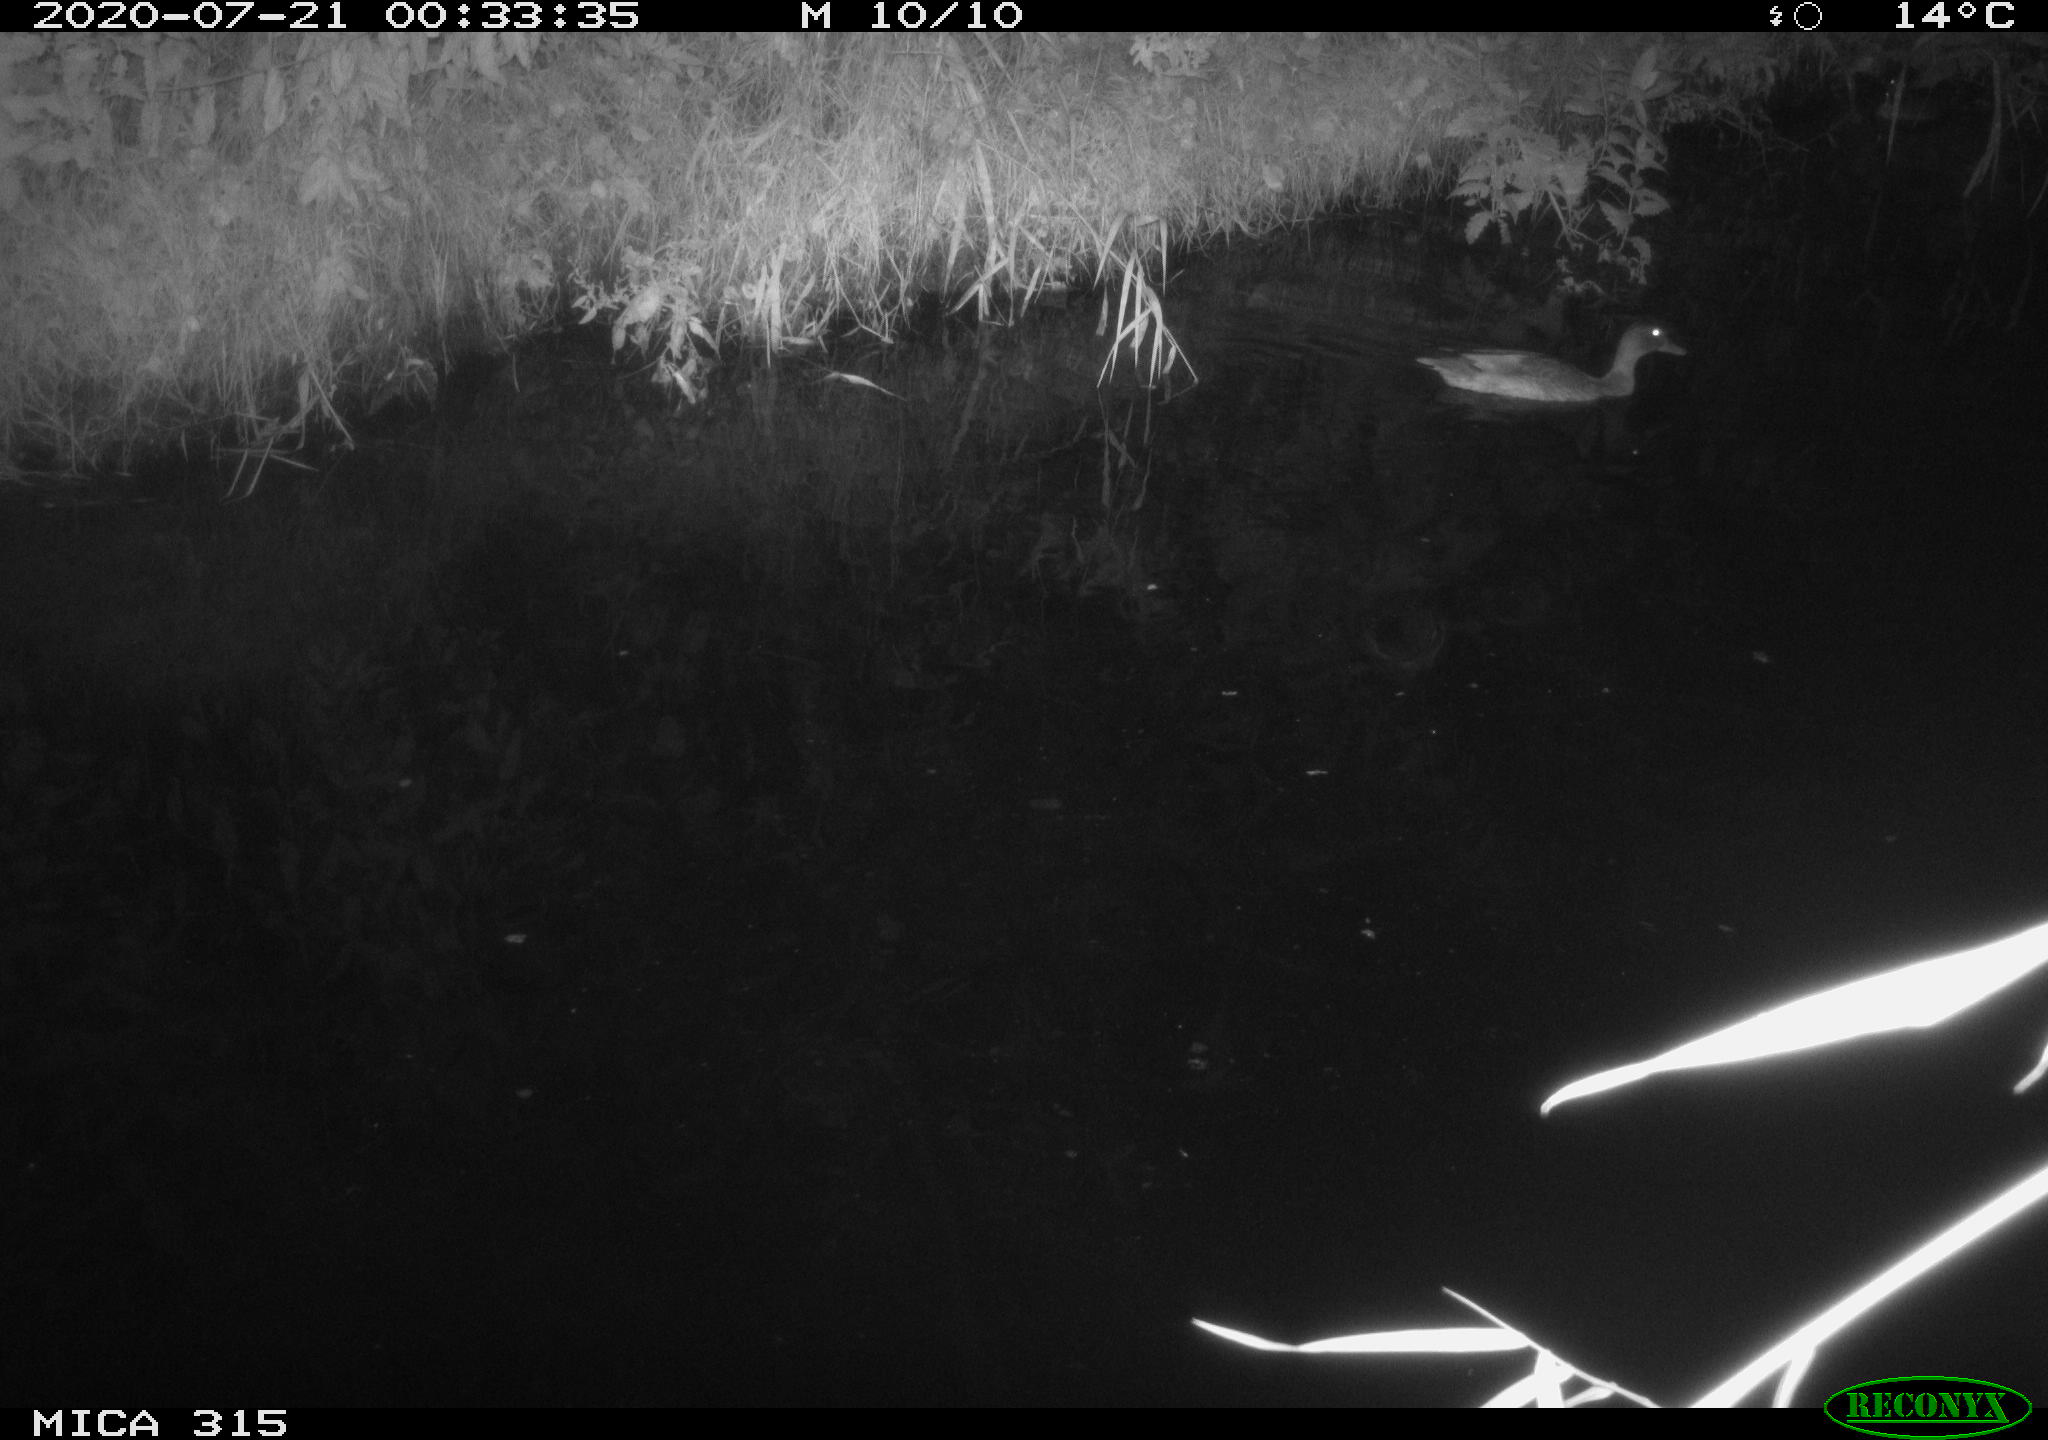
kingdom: Animalia
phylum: Chordata
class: Aves
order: Anseriformes
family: Anatidae
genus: Anas
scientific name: Anas platyrhynchos
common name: Mallard
